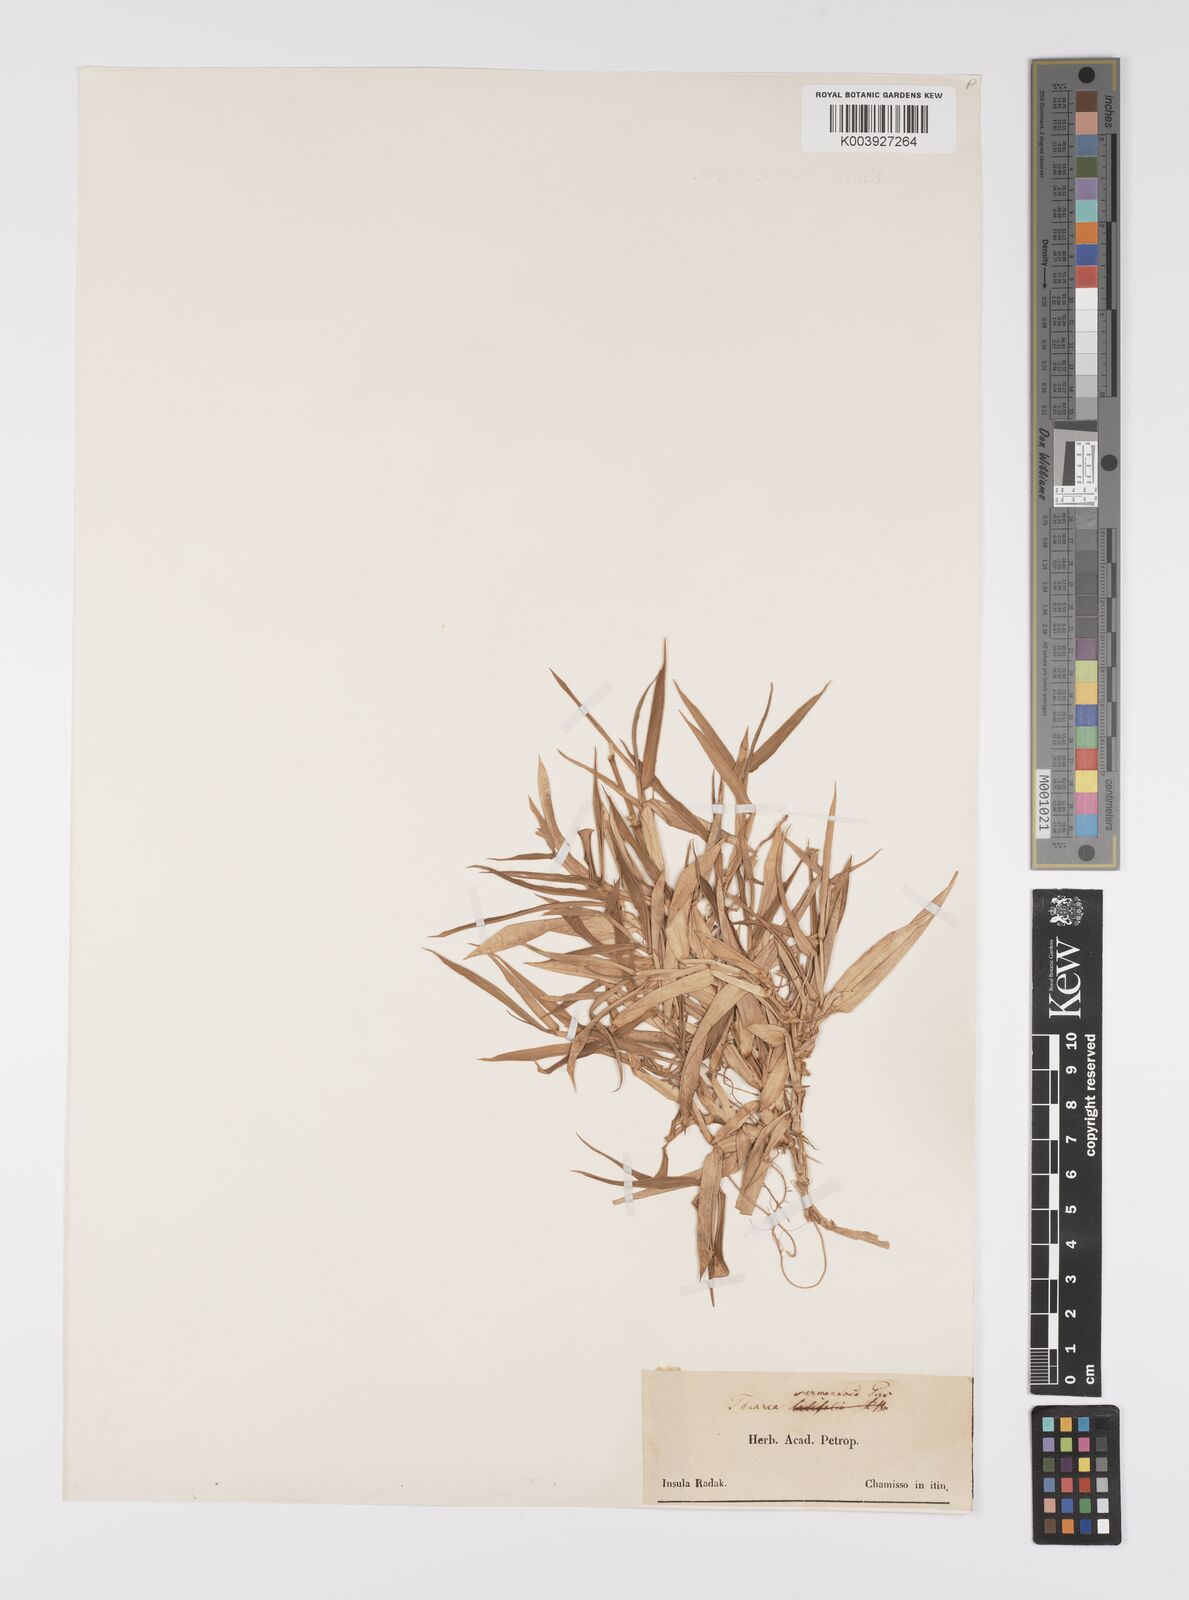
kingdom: Plantae
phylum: Tracheophyta
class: Liliopsida
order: Poales
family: Poaceae
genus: Thuarea
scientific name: Thuarea involuta
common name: Tropical beach grass
